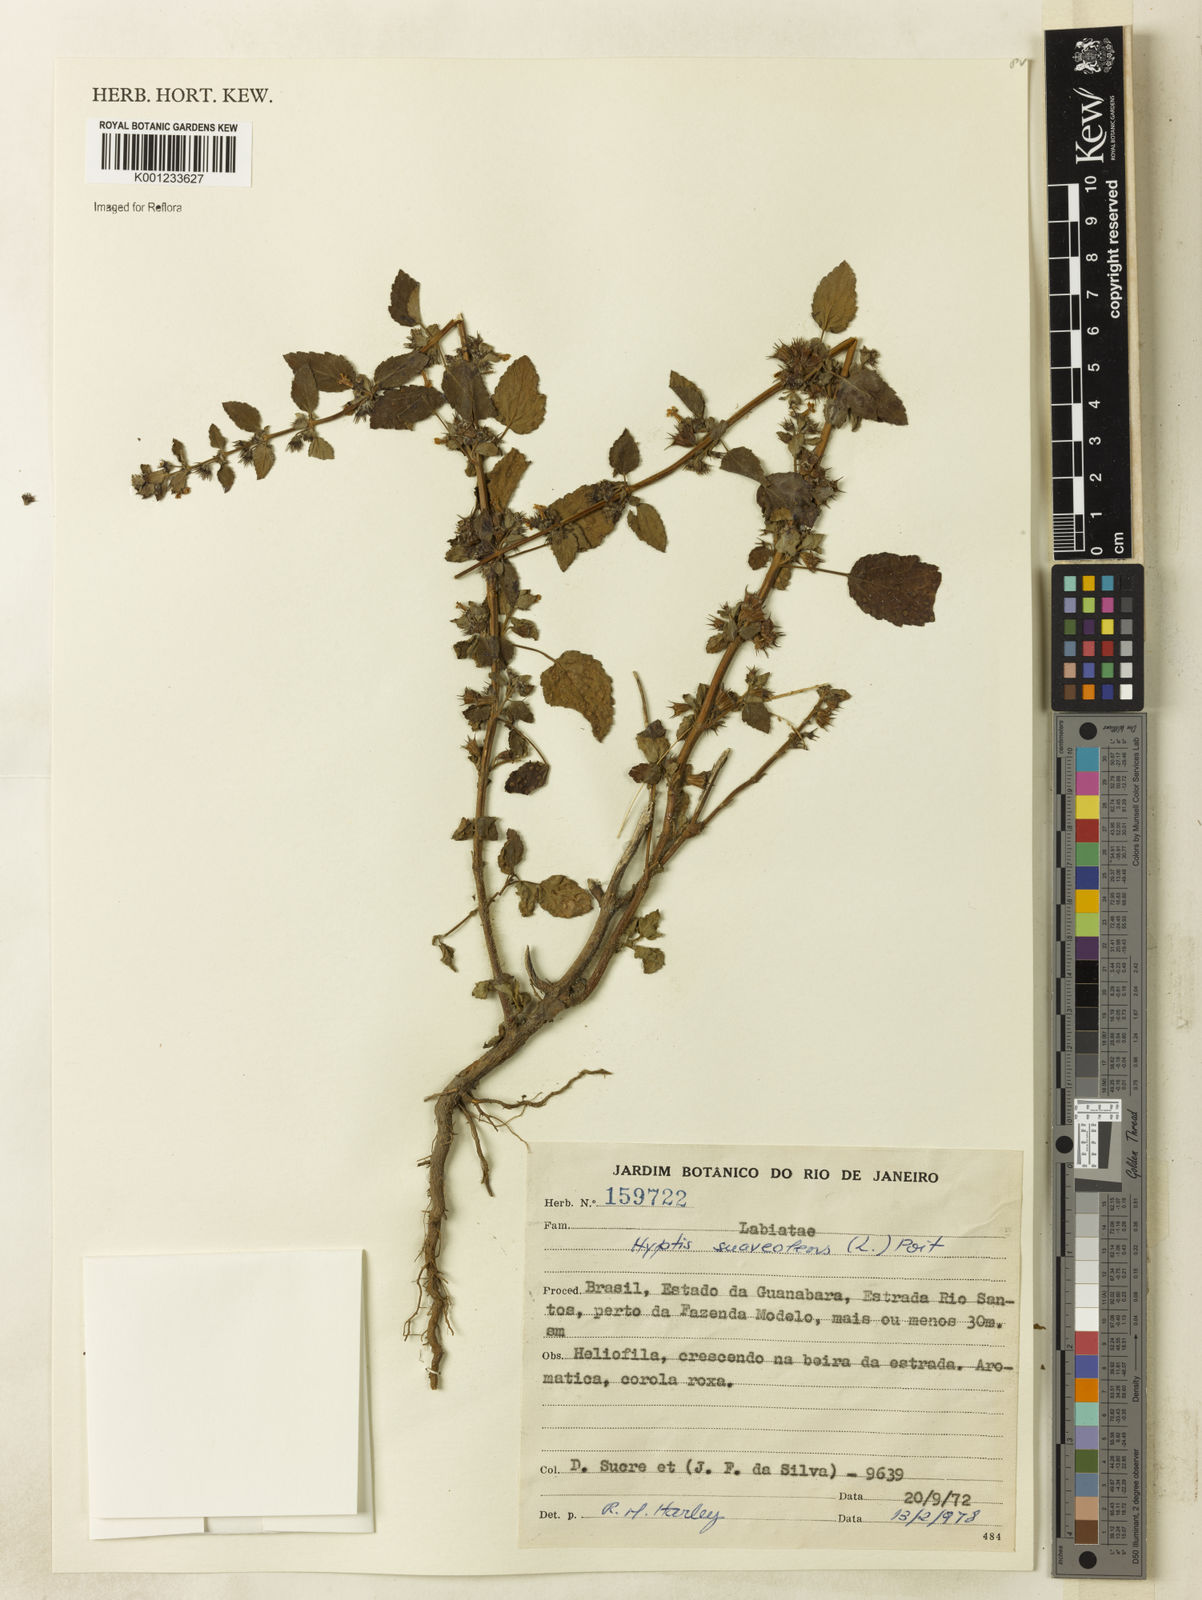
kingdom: Plantae
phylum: Tracheophyta
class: Magnoliopsida
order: Lamiales
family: Lamiaceae
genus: Mesosphaerum
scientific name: Mesosphaerum suaveolens
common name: Pignut
